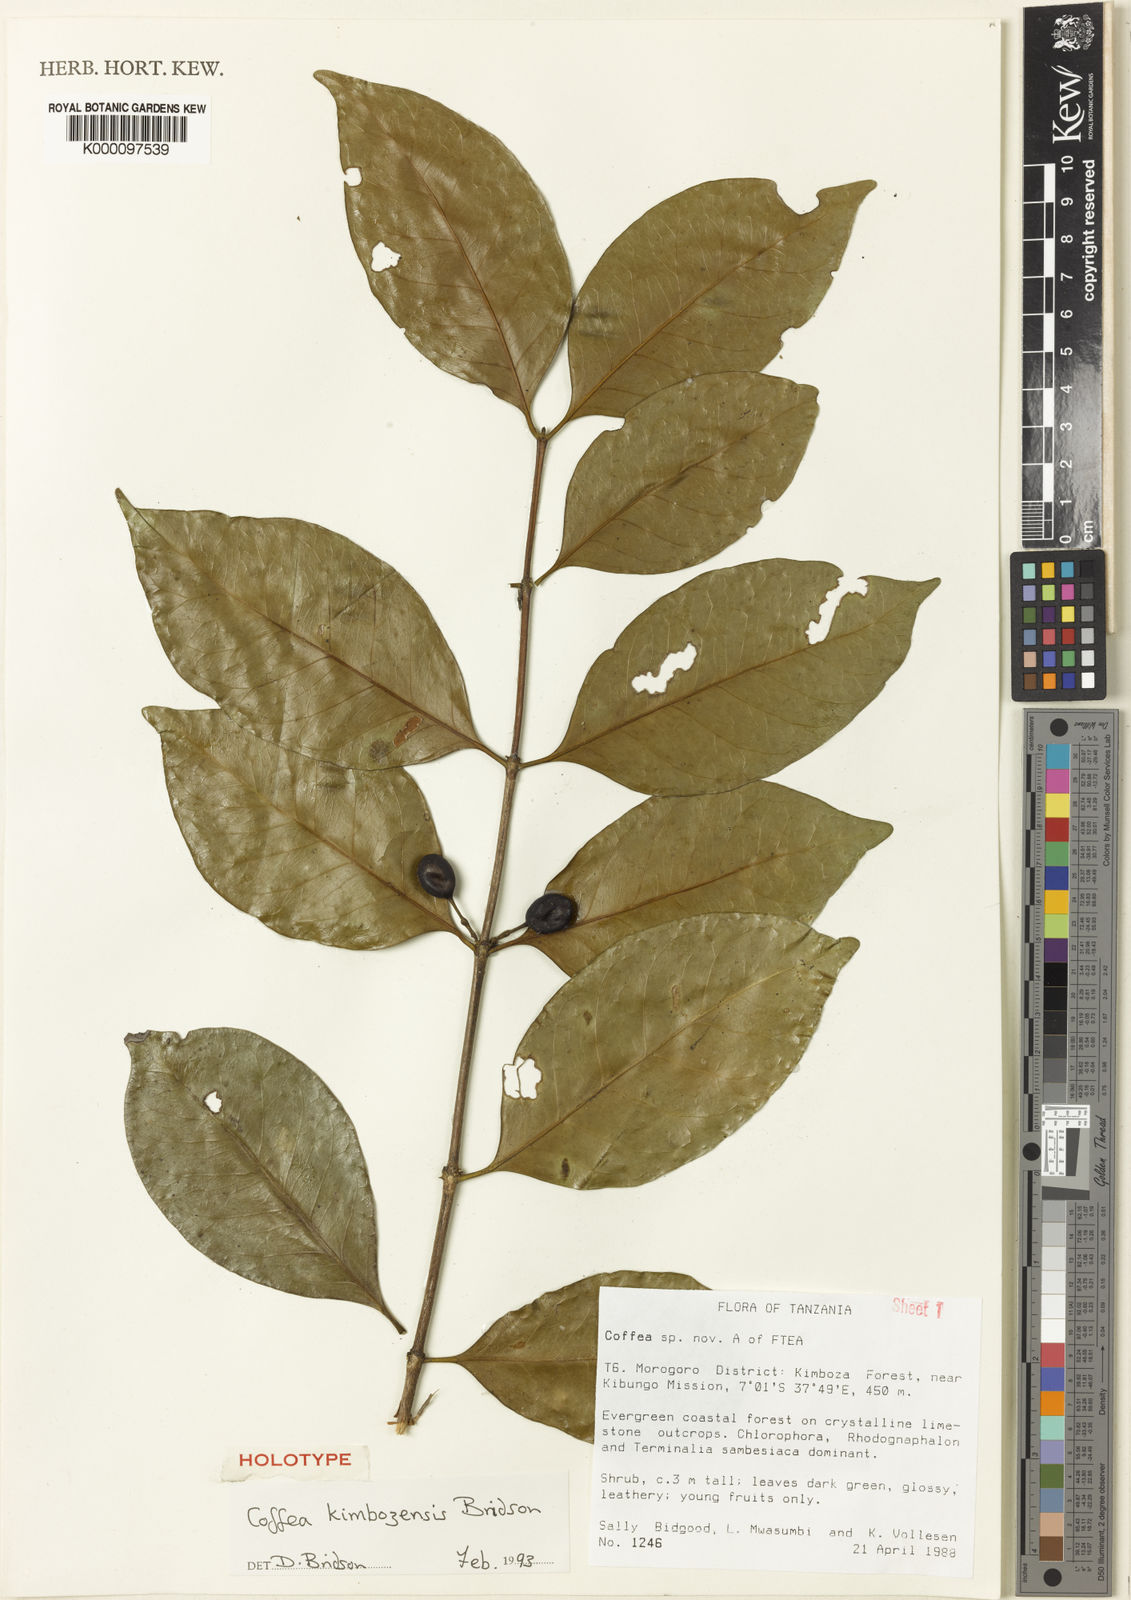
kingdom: Plantae
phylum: Tracheophyta
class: Magnoliopsida
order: Gentianales
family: Rubiaceae
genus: Coffea
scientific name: Coffea kimbozensis
